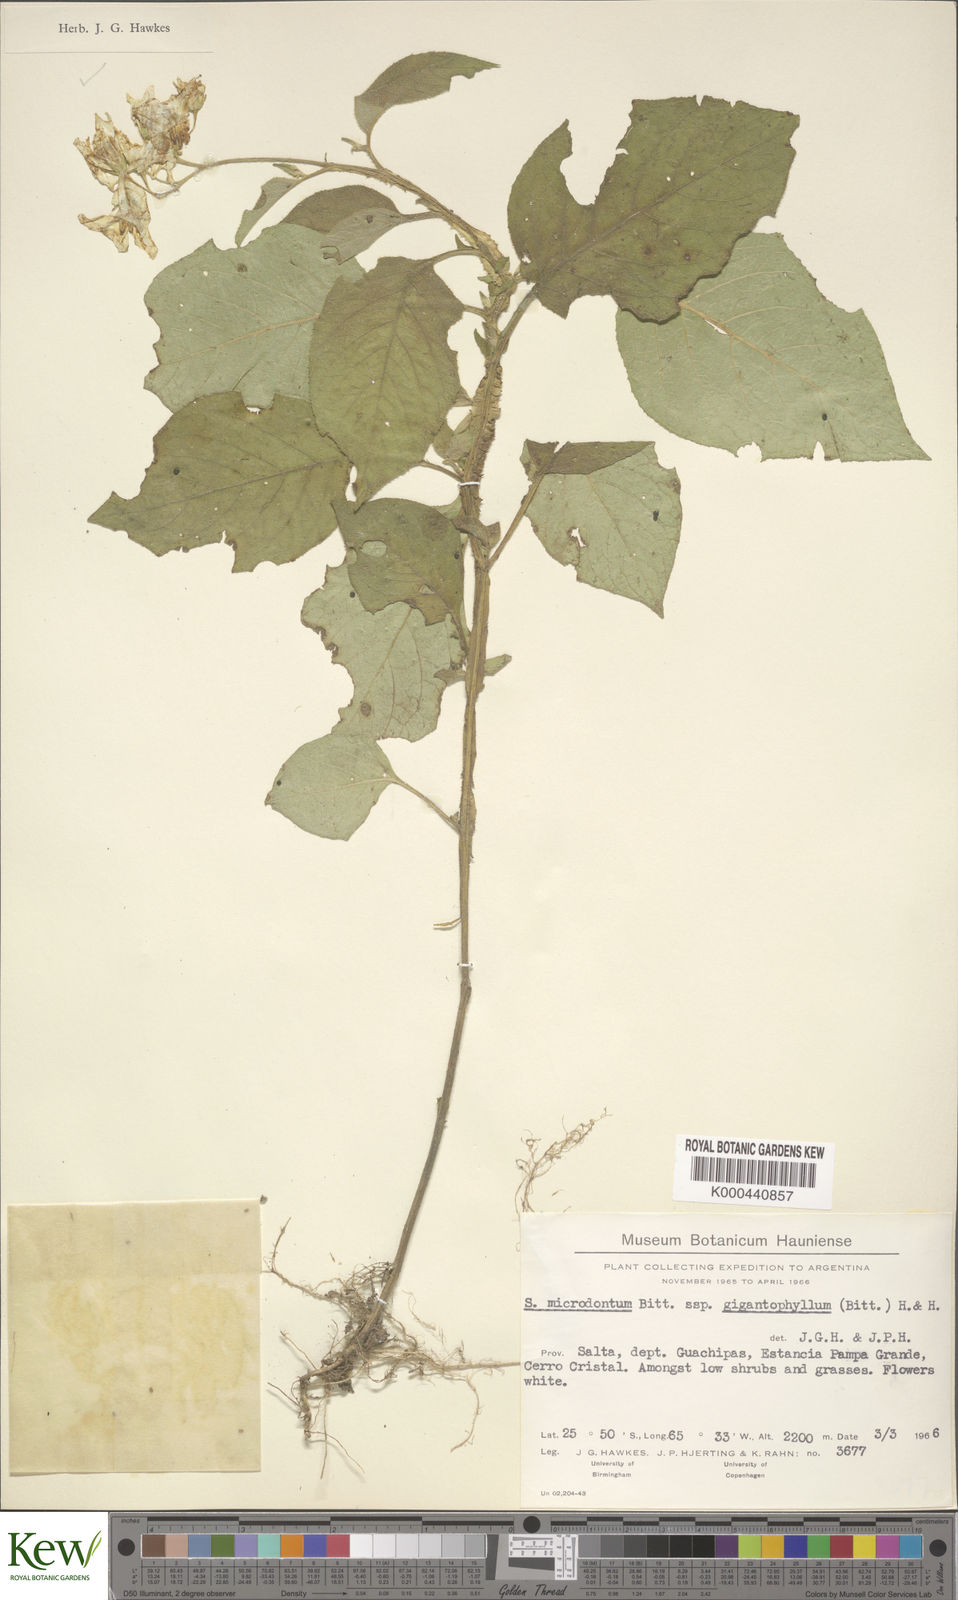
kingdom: Plantae
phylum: Tracheophyta
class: Magnoliopsida
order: Solanales
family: Solanaceae
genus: Solanum
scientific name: Solanum microdontum
